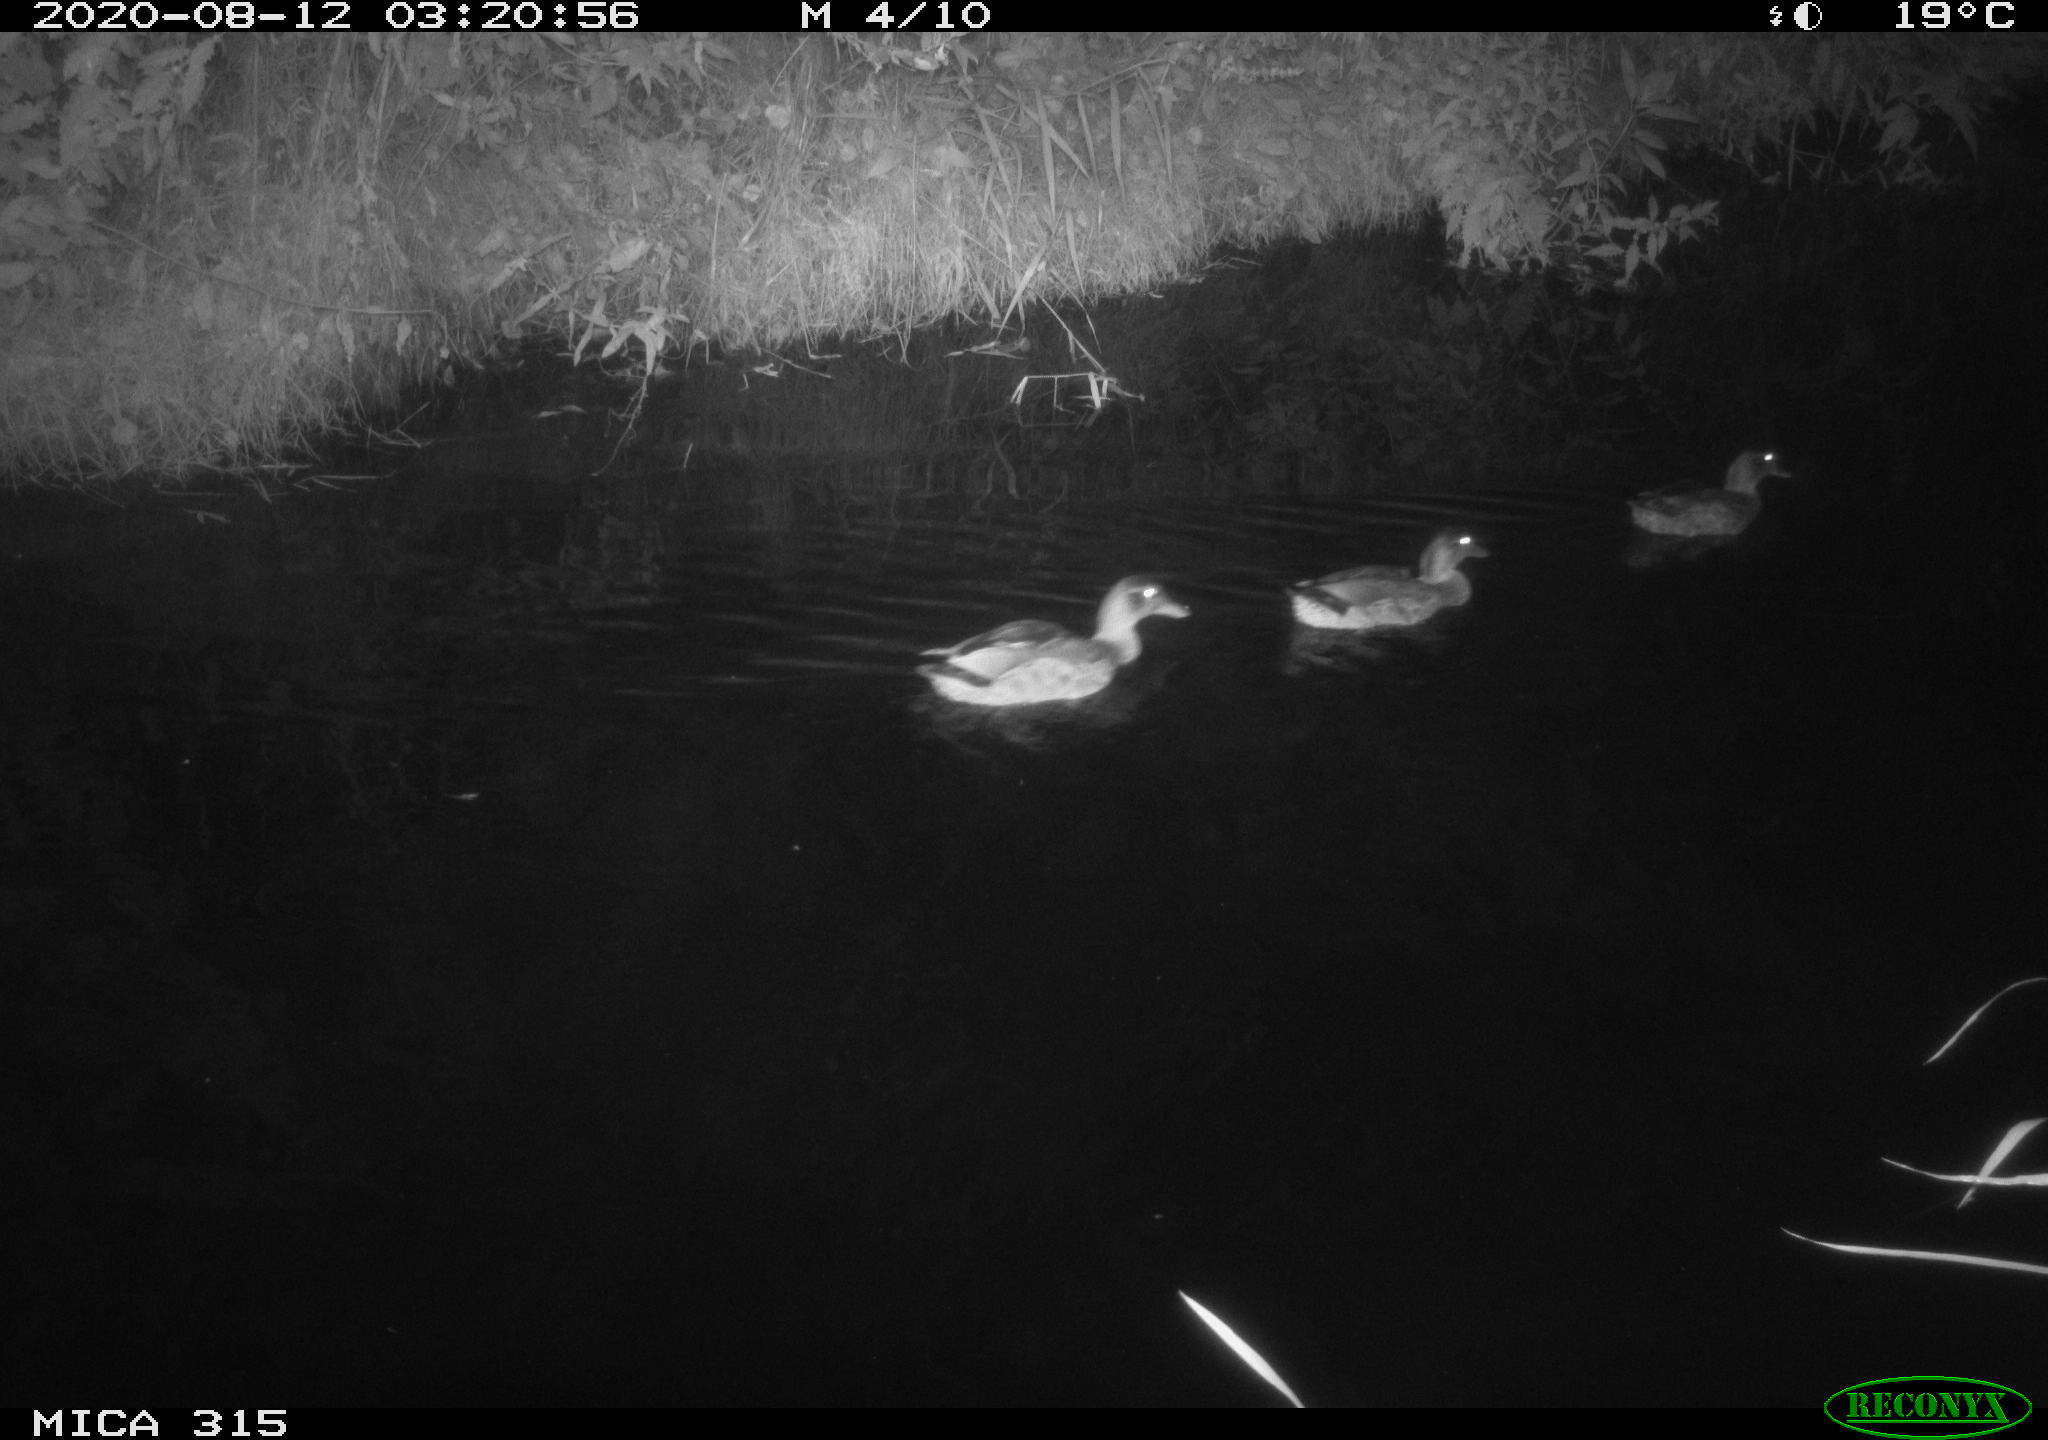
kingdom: Animalia
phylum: Chordata
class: Aves
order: Anseriformes
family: Anatidae
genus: Anas
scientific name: Anas platyrhynchos
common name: Mallard
